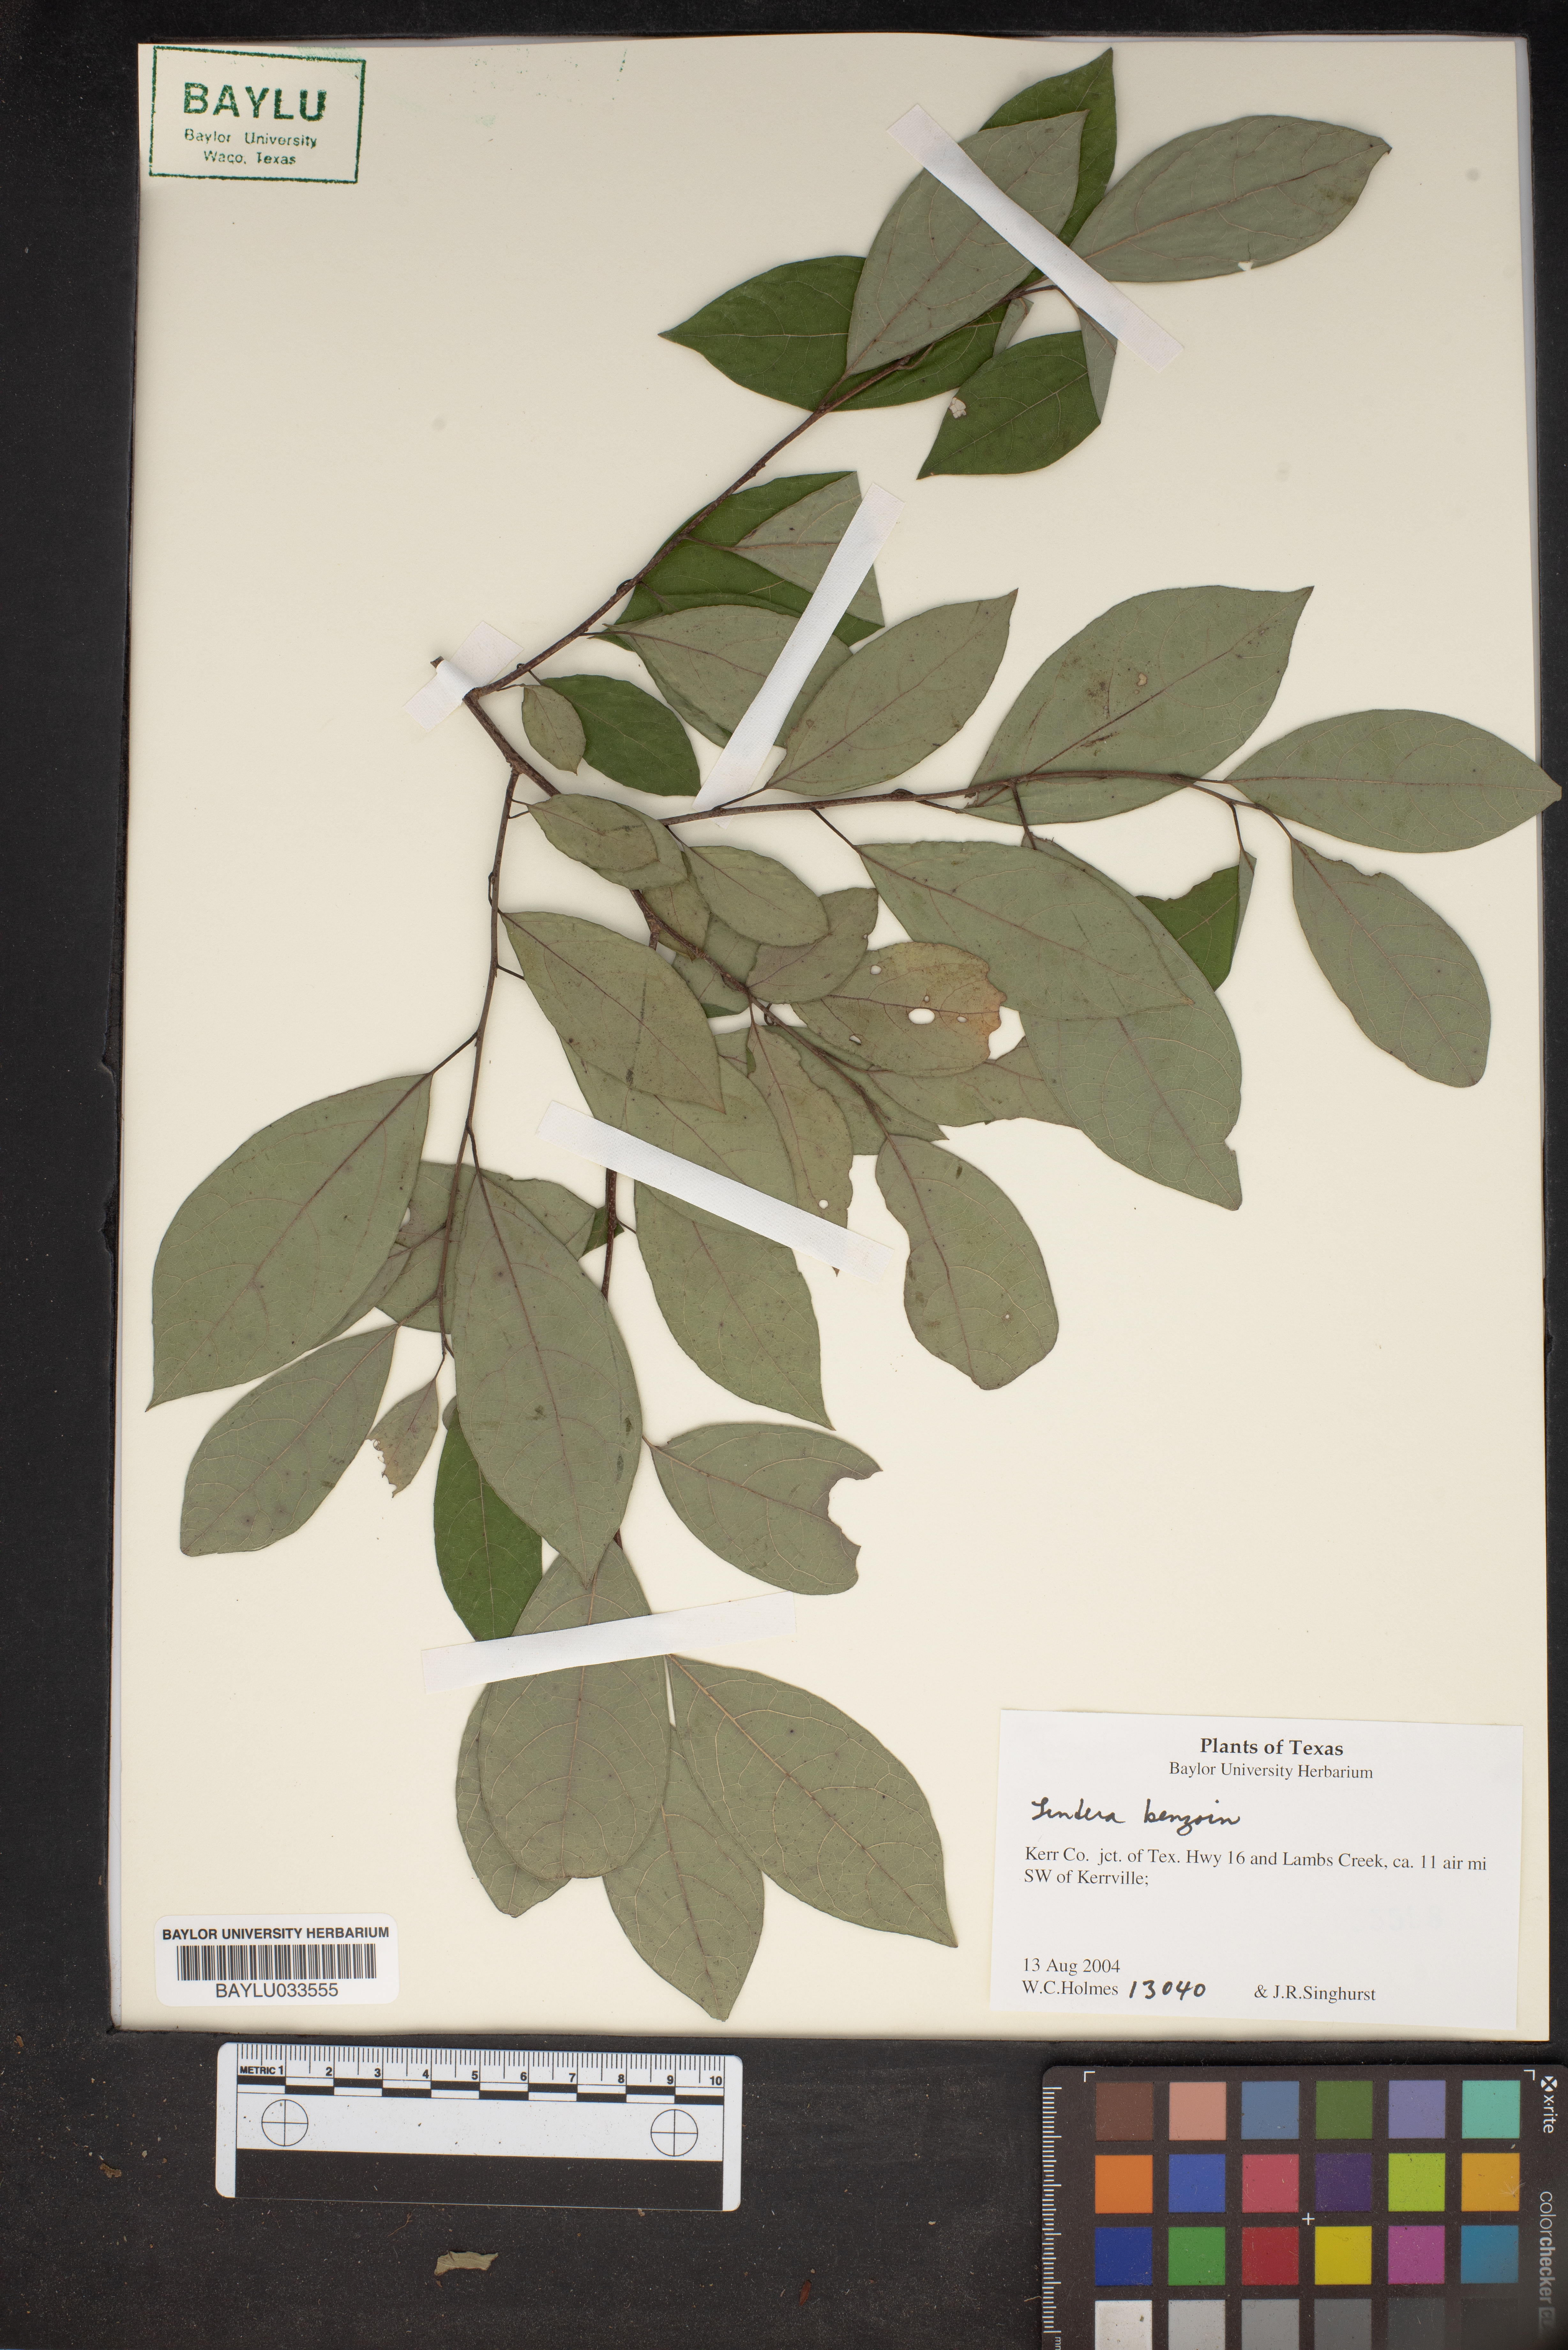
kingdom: Plantae
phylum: Tracheophyta
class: Magnoliopsida
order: Laurales
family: Lauraceae
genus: Lindera
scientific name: Lindera benzoin
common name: Spicebush
